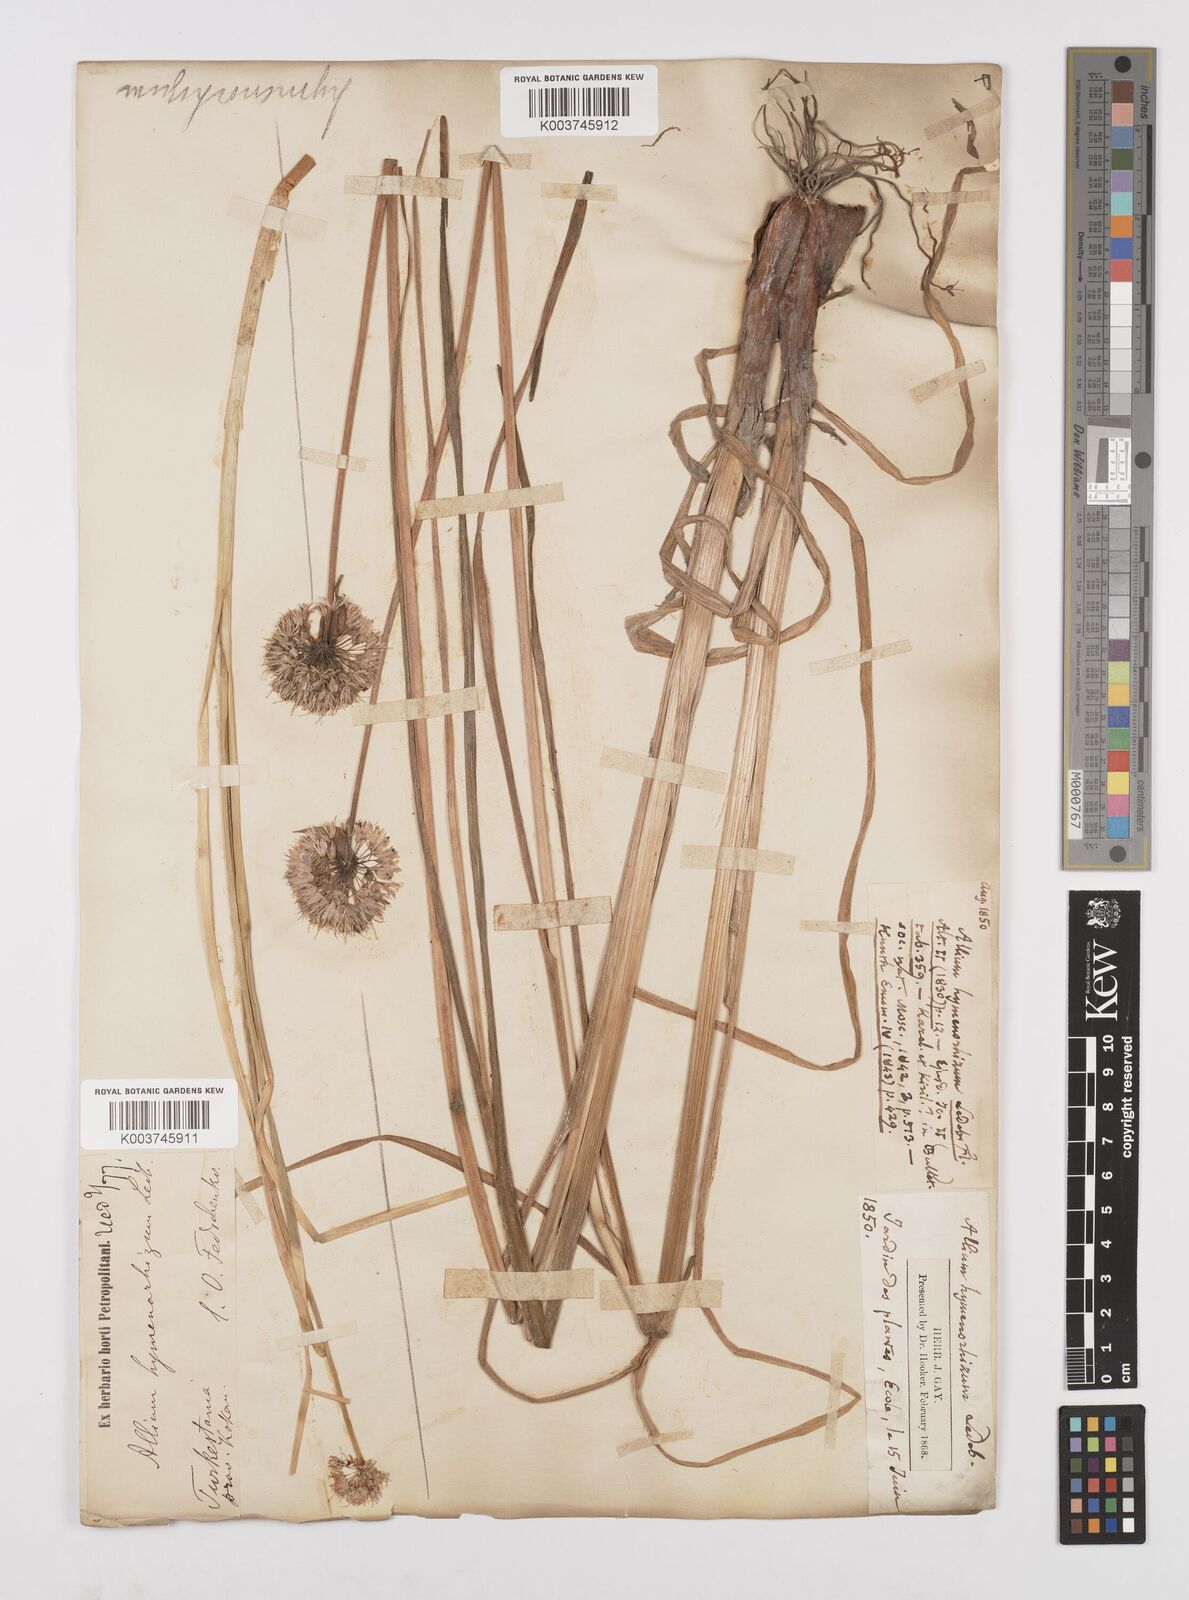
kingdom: Plantae
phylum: Tracheophyta
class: Liliopsida
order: Asparagales
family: Amaryllidaceae
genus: Allium
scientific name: Allium hymenorhizum
